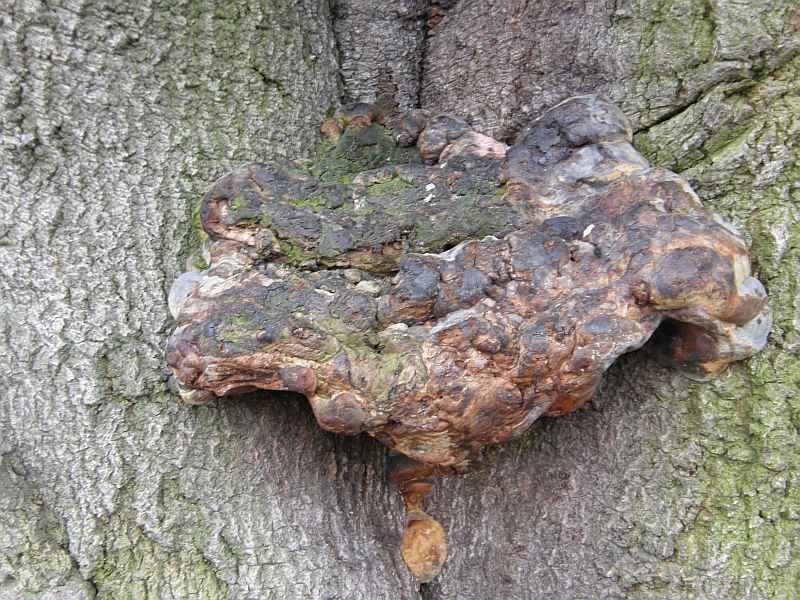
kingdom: Fungi
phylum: Basidiomycota
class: Agaricomycetes
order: Polyporales
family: Polyporaceae
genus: Ganoderma
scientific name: Ganoderma pfeifferi
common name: kobberrød lakporesvamp
